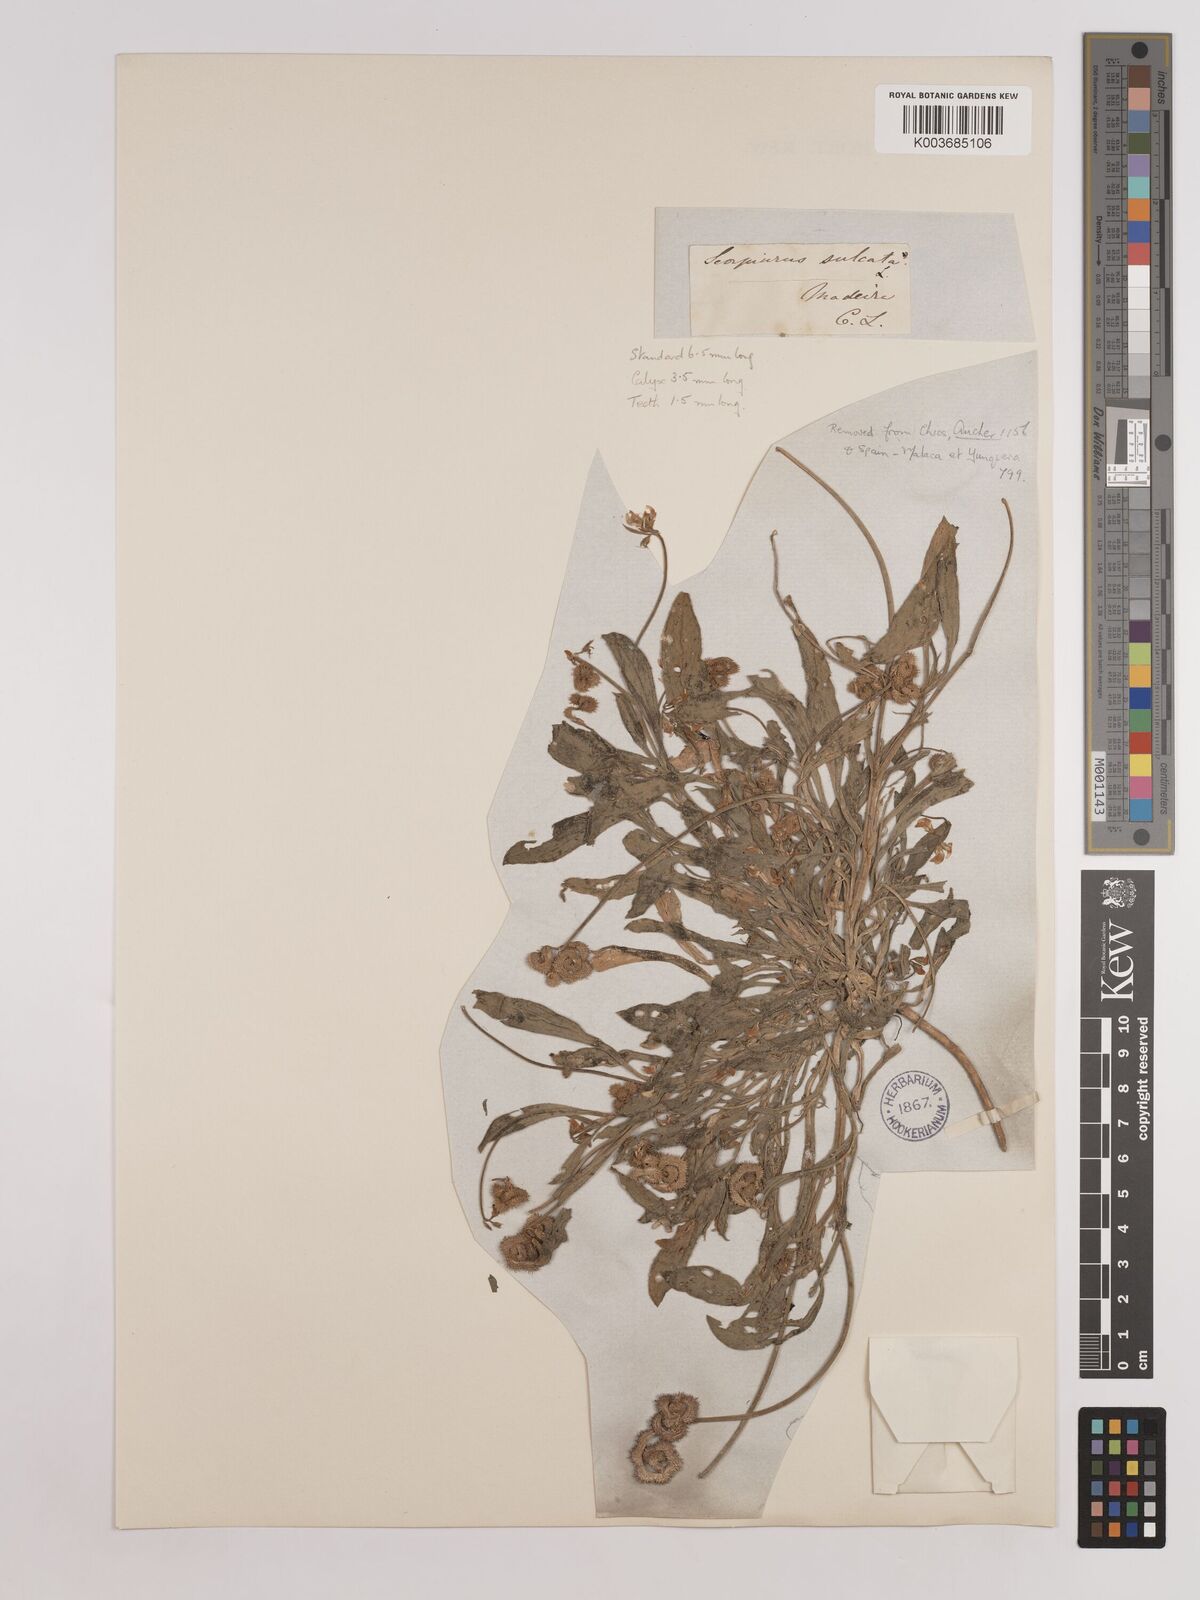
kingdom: Plantae
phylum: Tracheophyta
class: Magnoliopsida
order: Fabales
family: Fabaceae
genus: Scorpiurus
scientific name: Scorpiurus muricatus
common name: Caterpillar-plant
